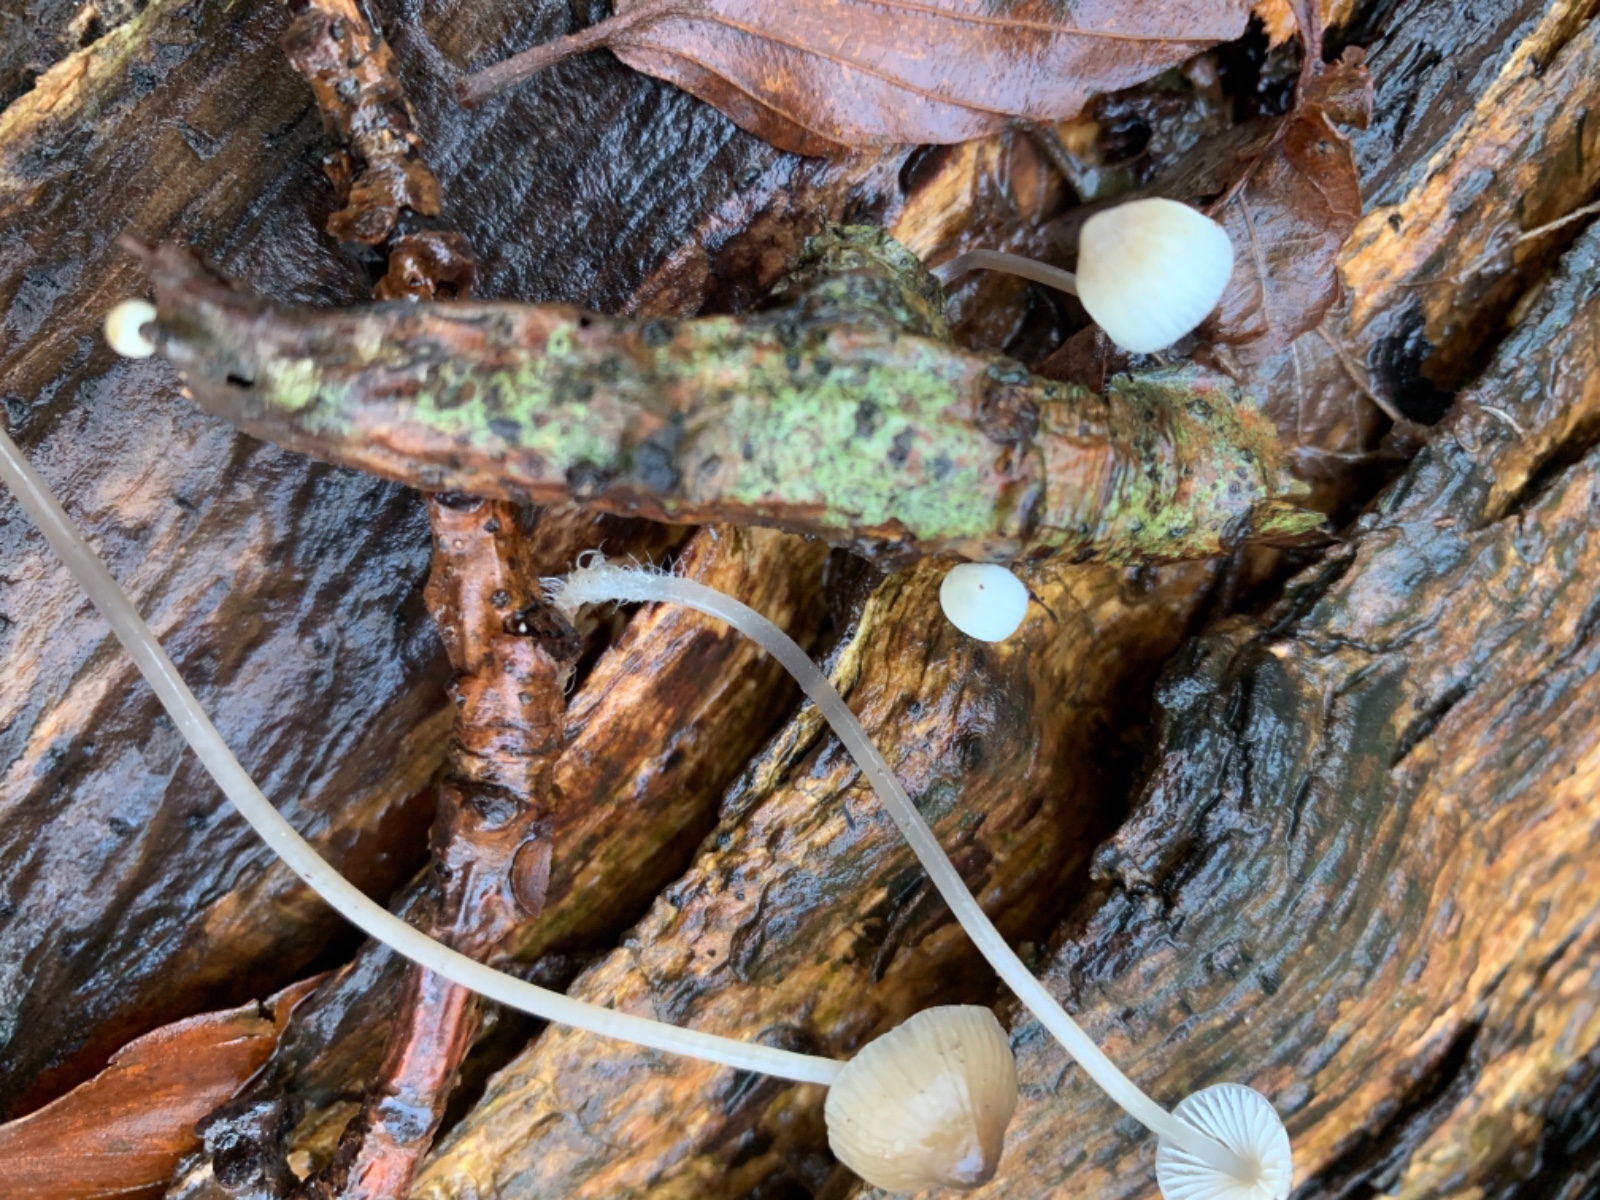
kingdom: Fungi
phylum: Basidiomycota
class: Agaricomycetes
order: Agaricales
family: Mycenaceae
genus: Mycena
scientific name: Mycena vitilis
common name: blankstokket huesvamp
